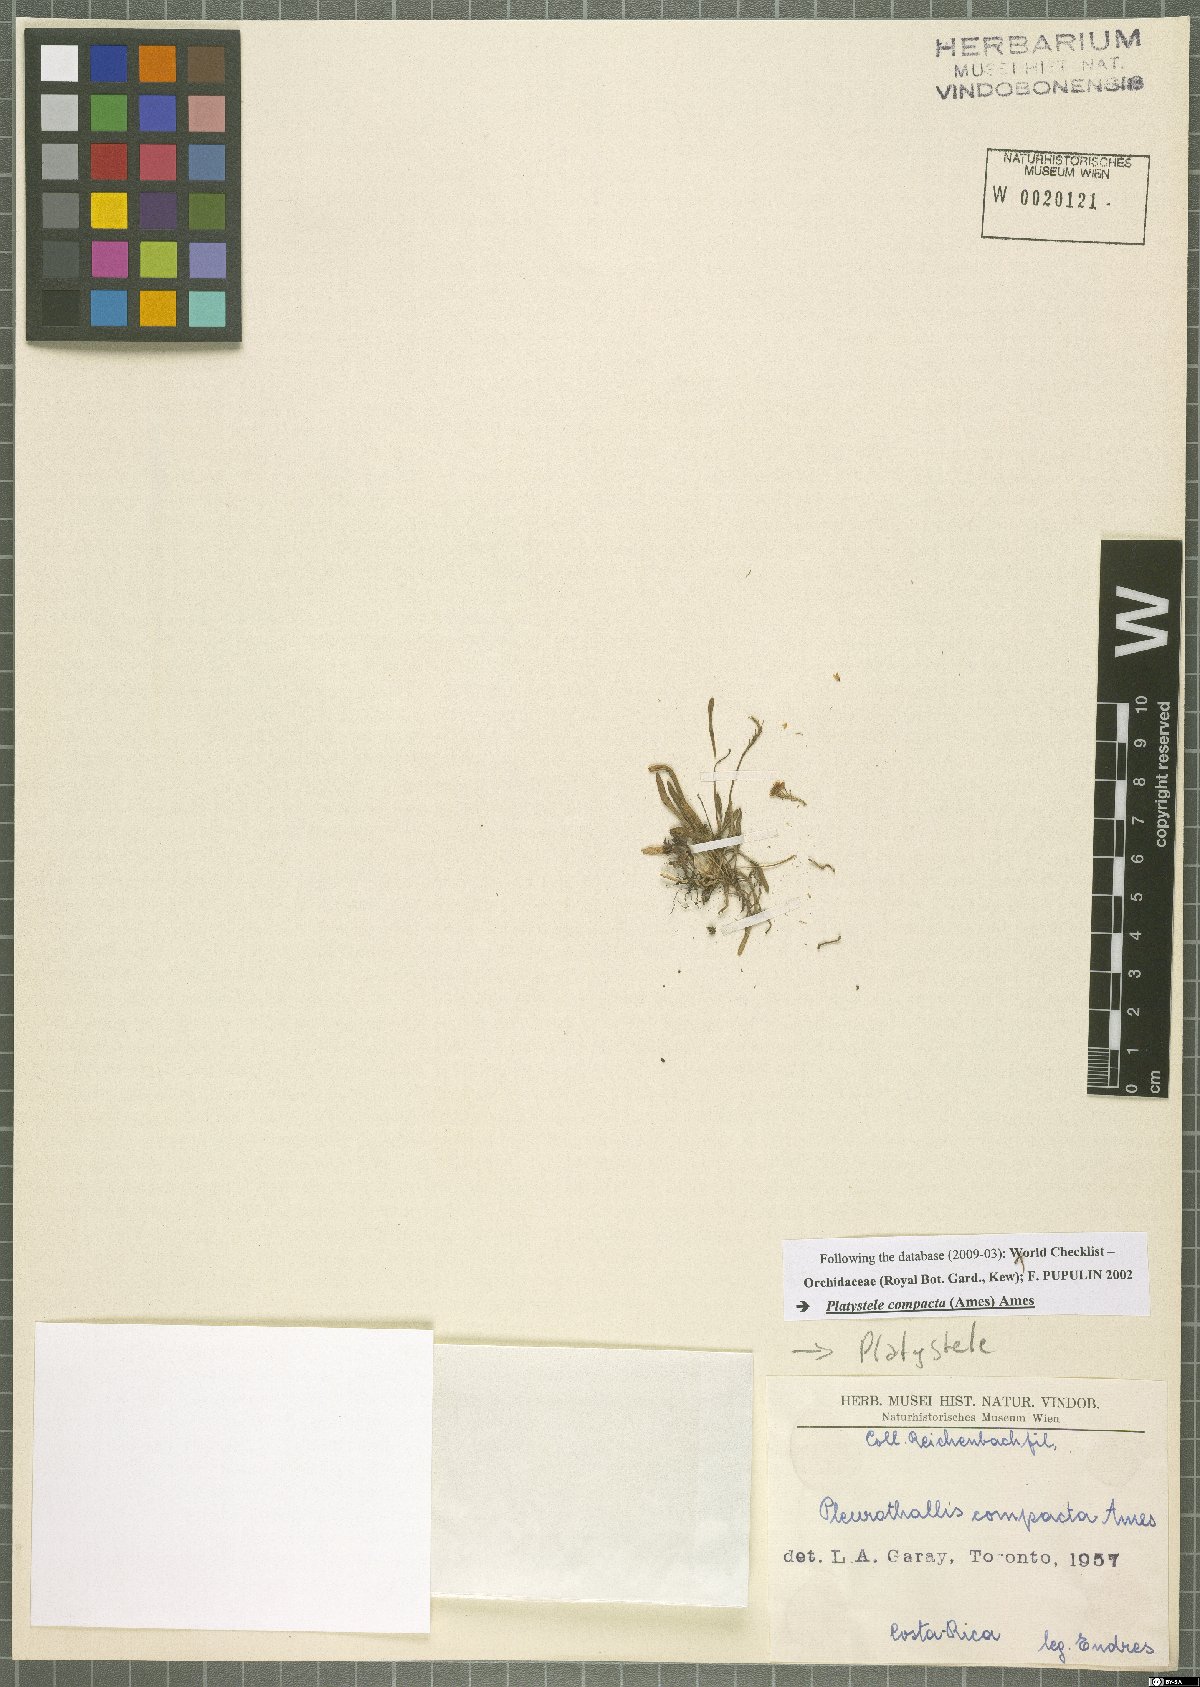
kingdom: Plantae
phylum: Tracheophyta
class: Liliopsida
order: Asparagales
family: Orchidaceae
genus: Platystele
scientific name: Platystele compacta
